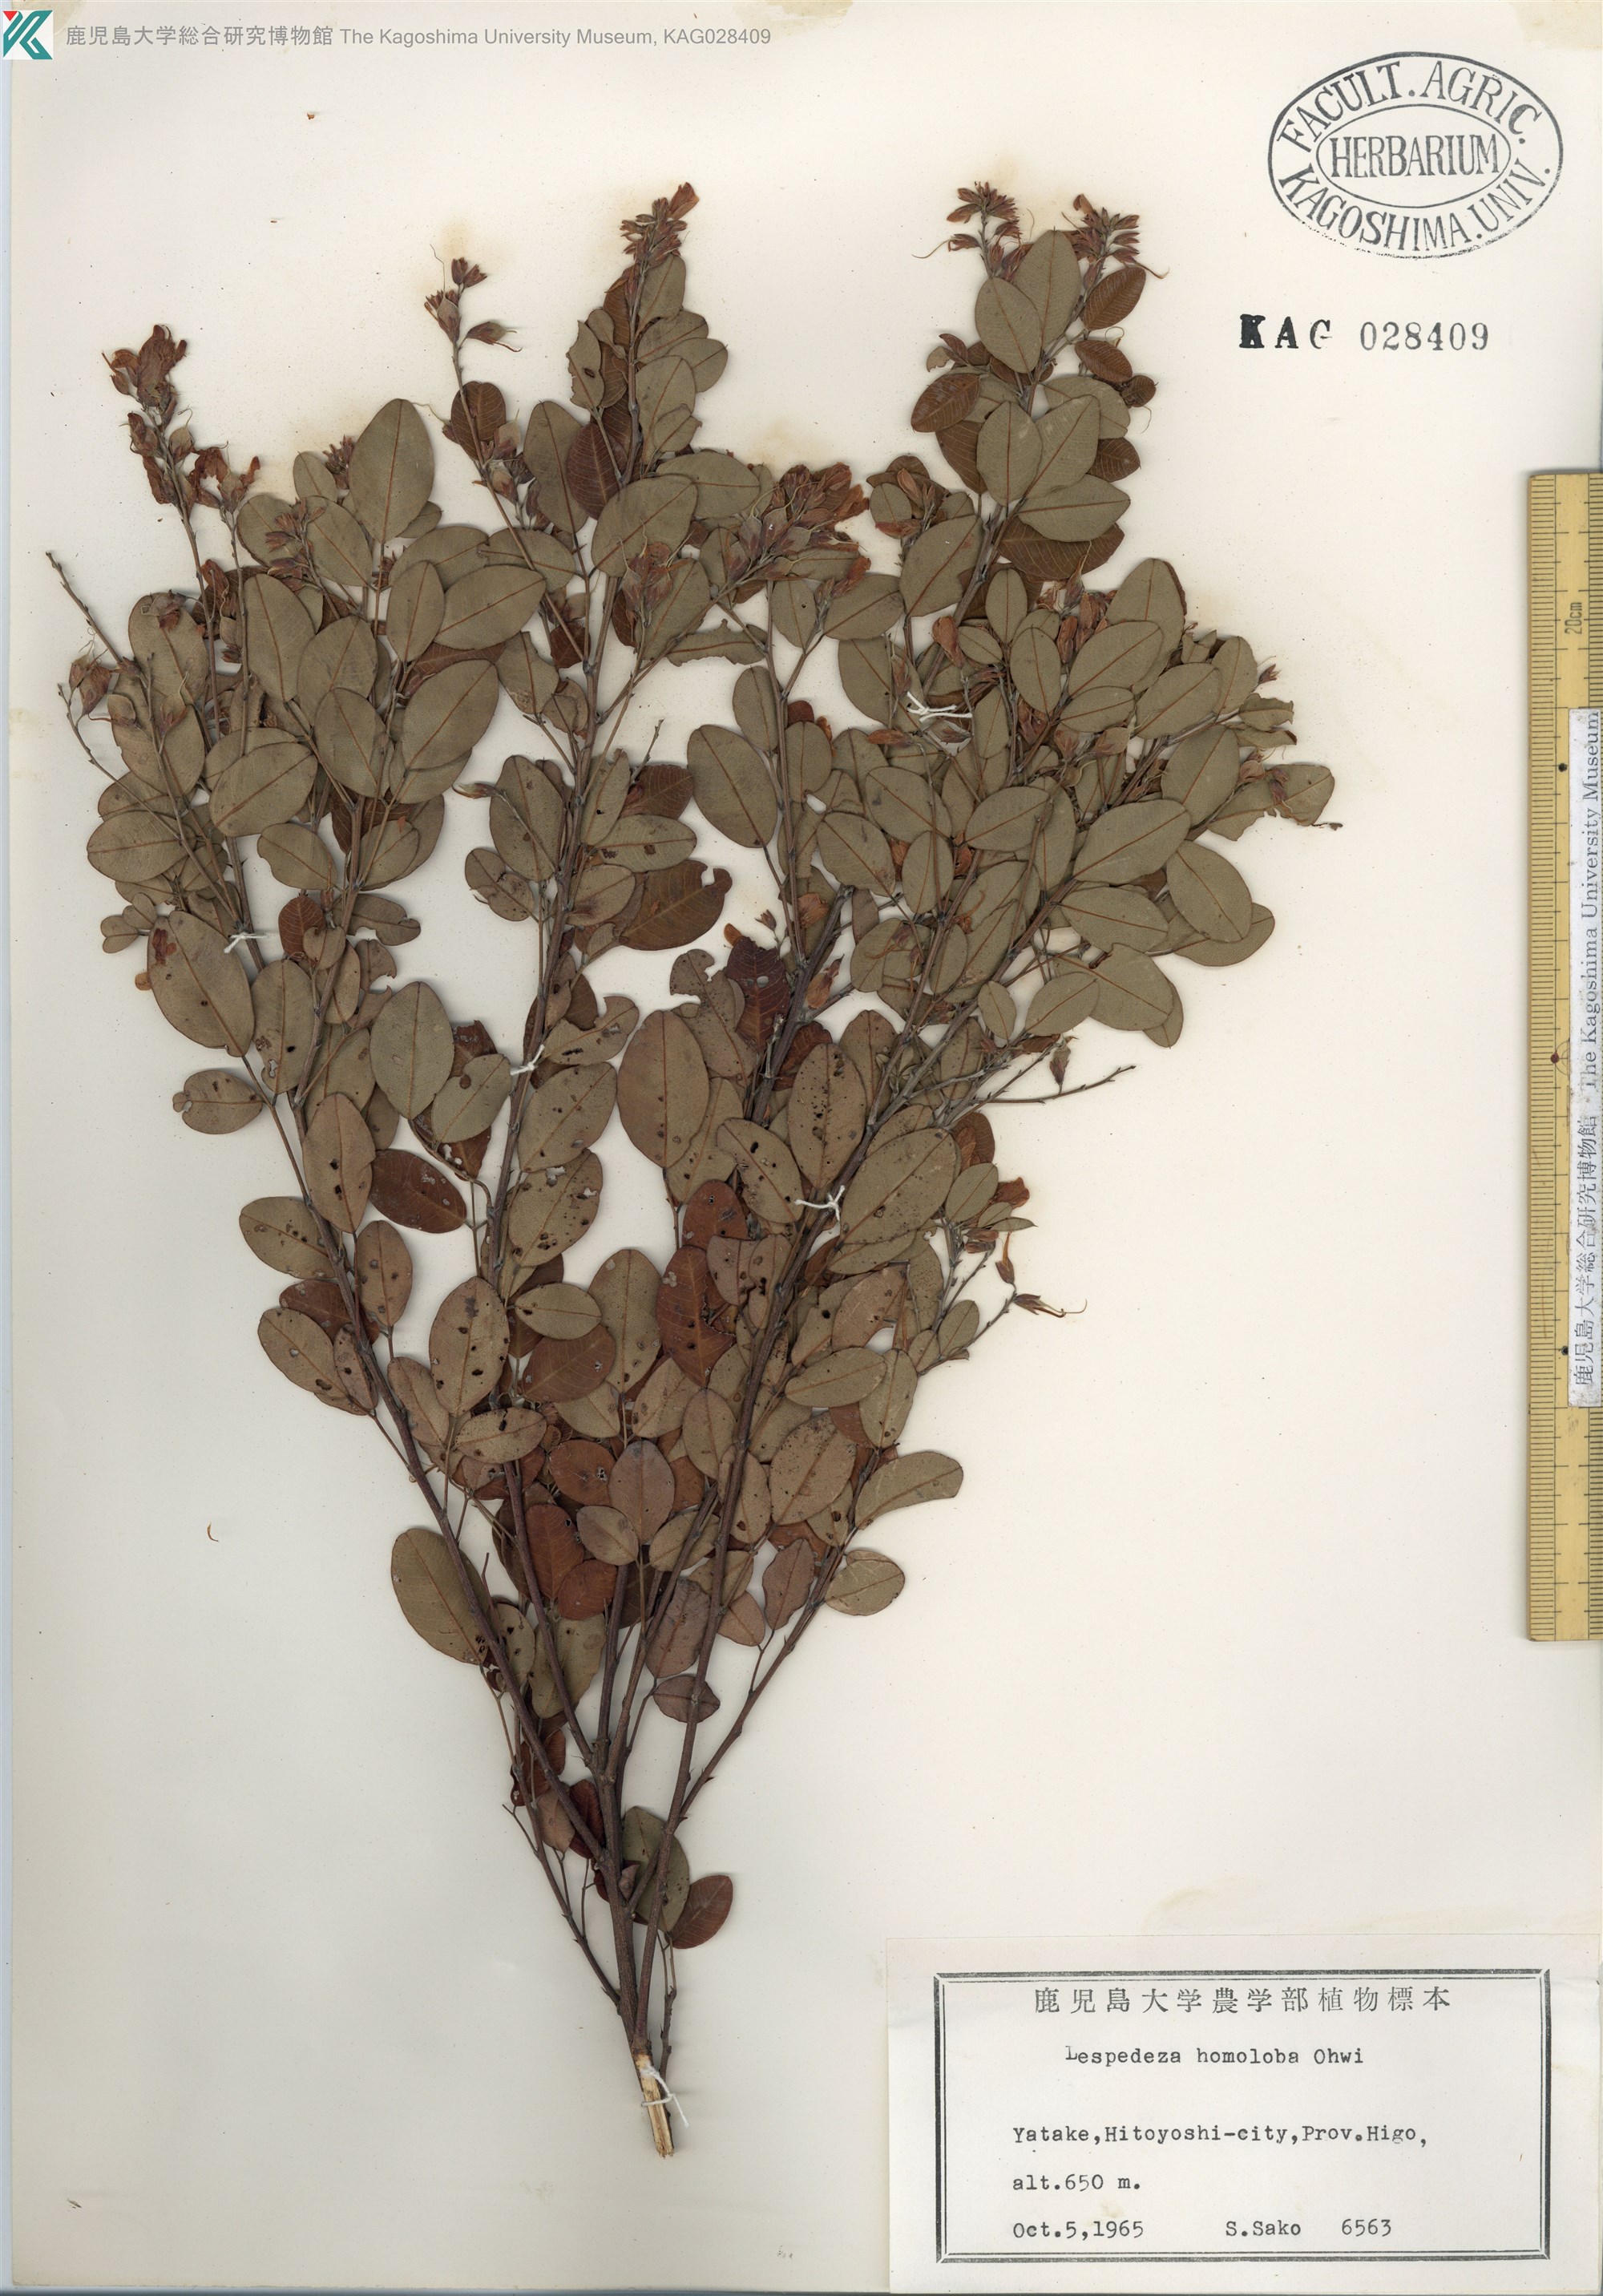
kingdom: Plantae
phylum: Tracheophyta
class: Magnoliopsida
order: Fabales
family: Fabaceae
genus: Lespedeza
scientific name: Lespedeza homoloba
